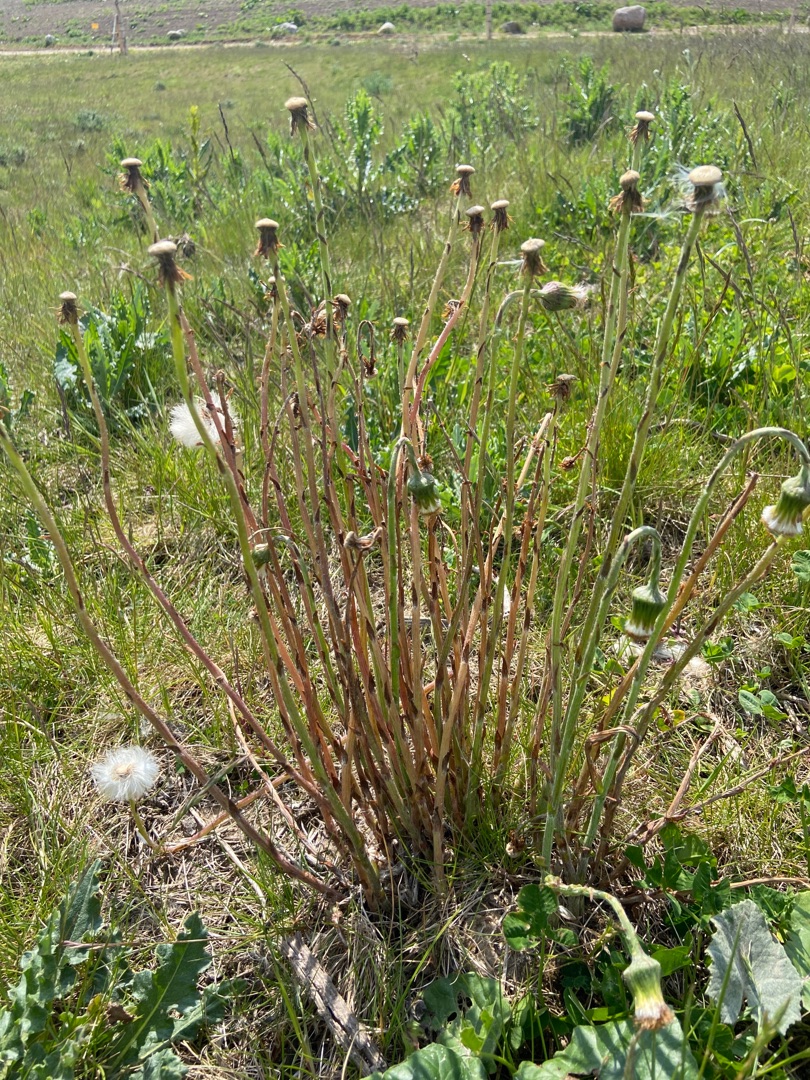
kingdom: Plantae
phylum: Tracheophyta
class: Magnoliopsida
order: Asterales
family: Asteraceae
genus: Tussilago
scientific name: Tussilago farfara
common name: Følfod
